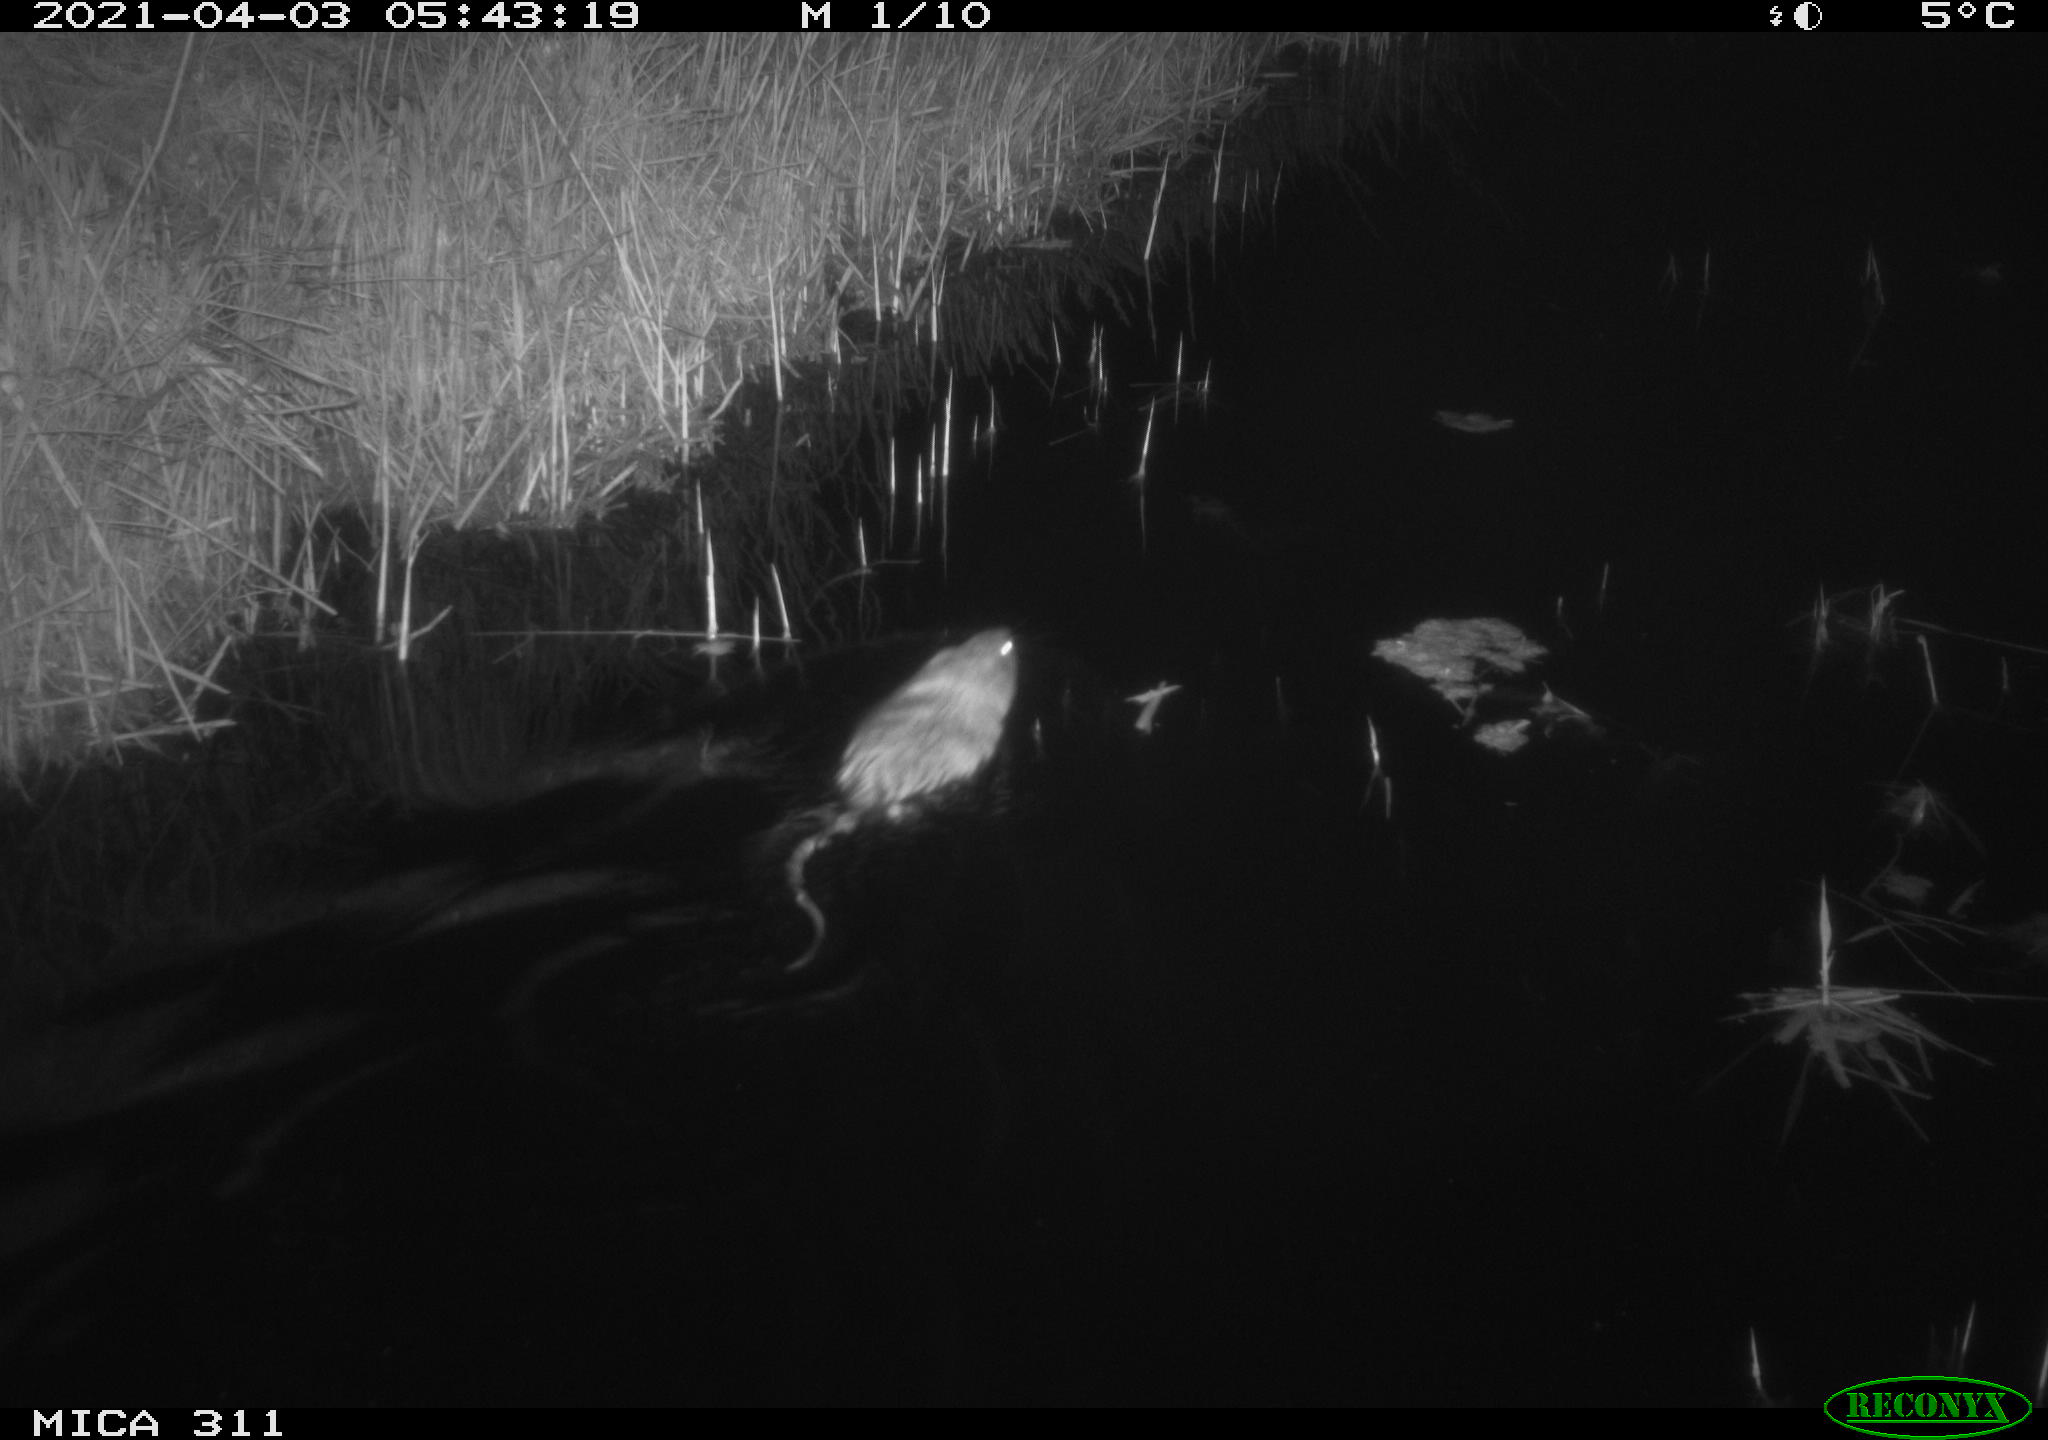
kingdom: Animalia
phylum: Chordata
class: Mammalia
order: Rodentia
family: Cricetidae
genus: Ondatra
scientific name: Ondatra zibethicus
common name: Muskrat
